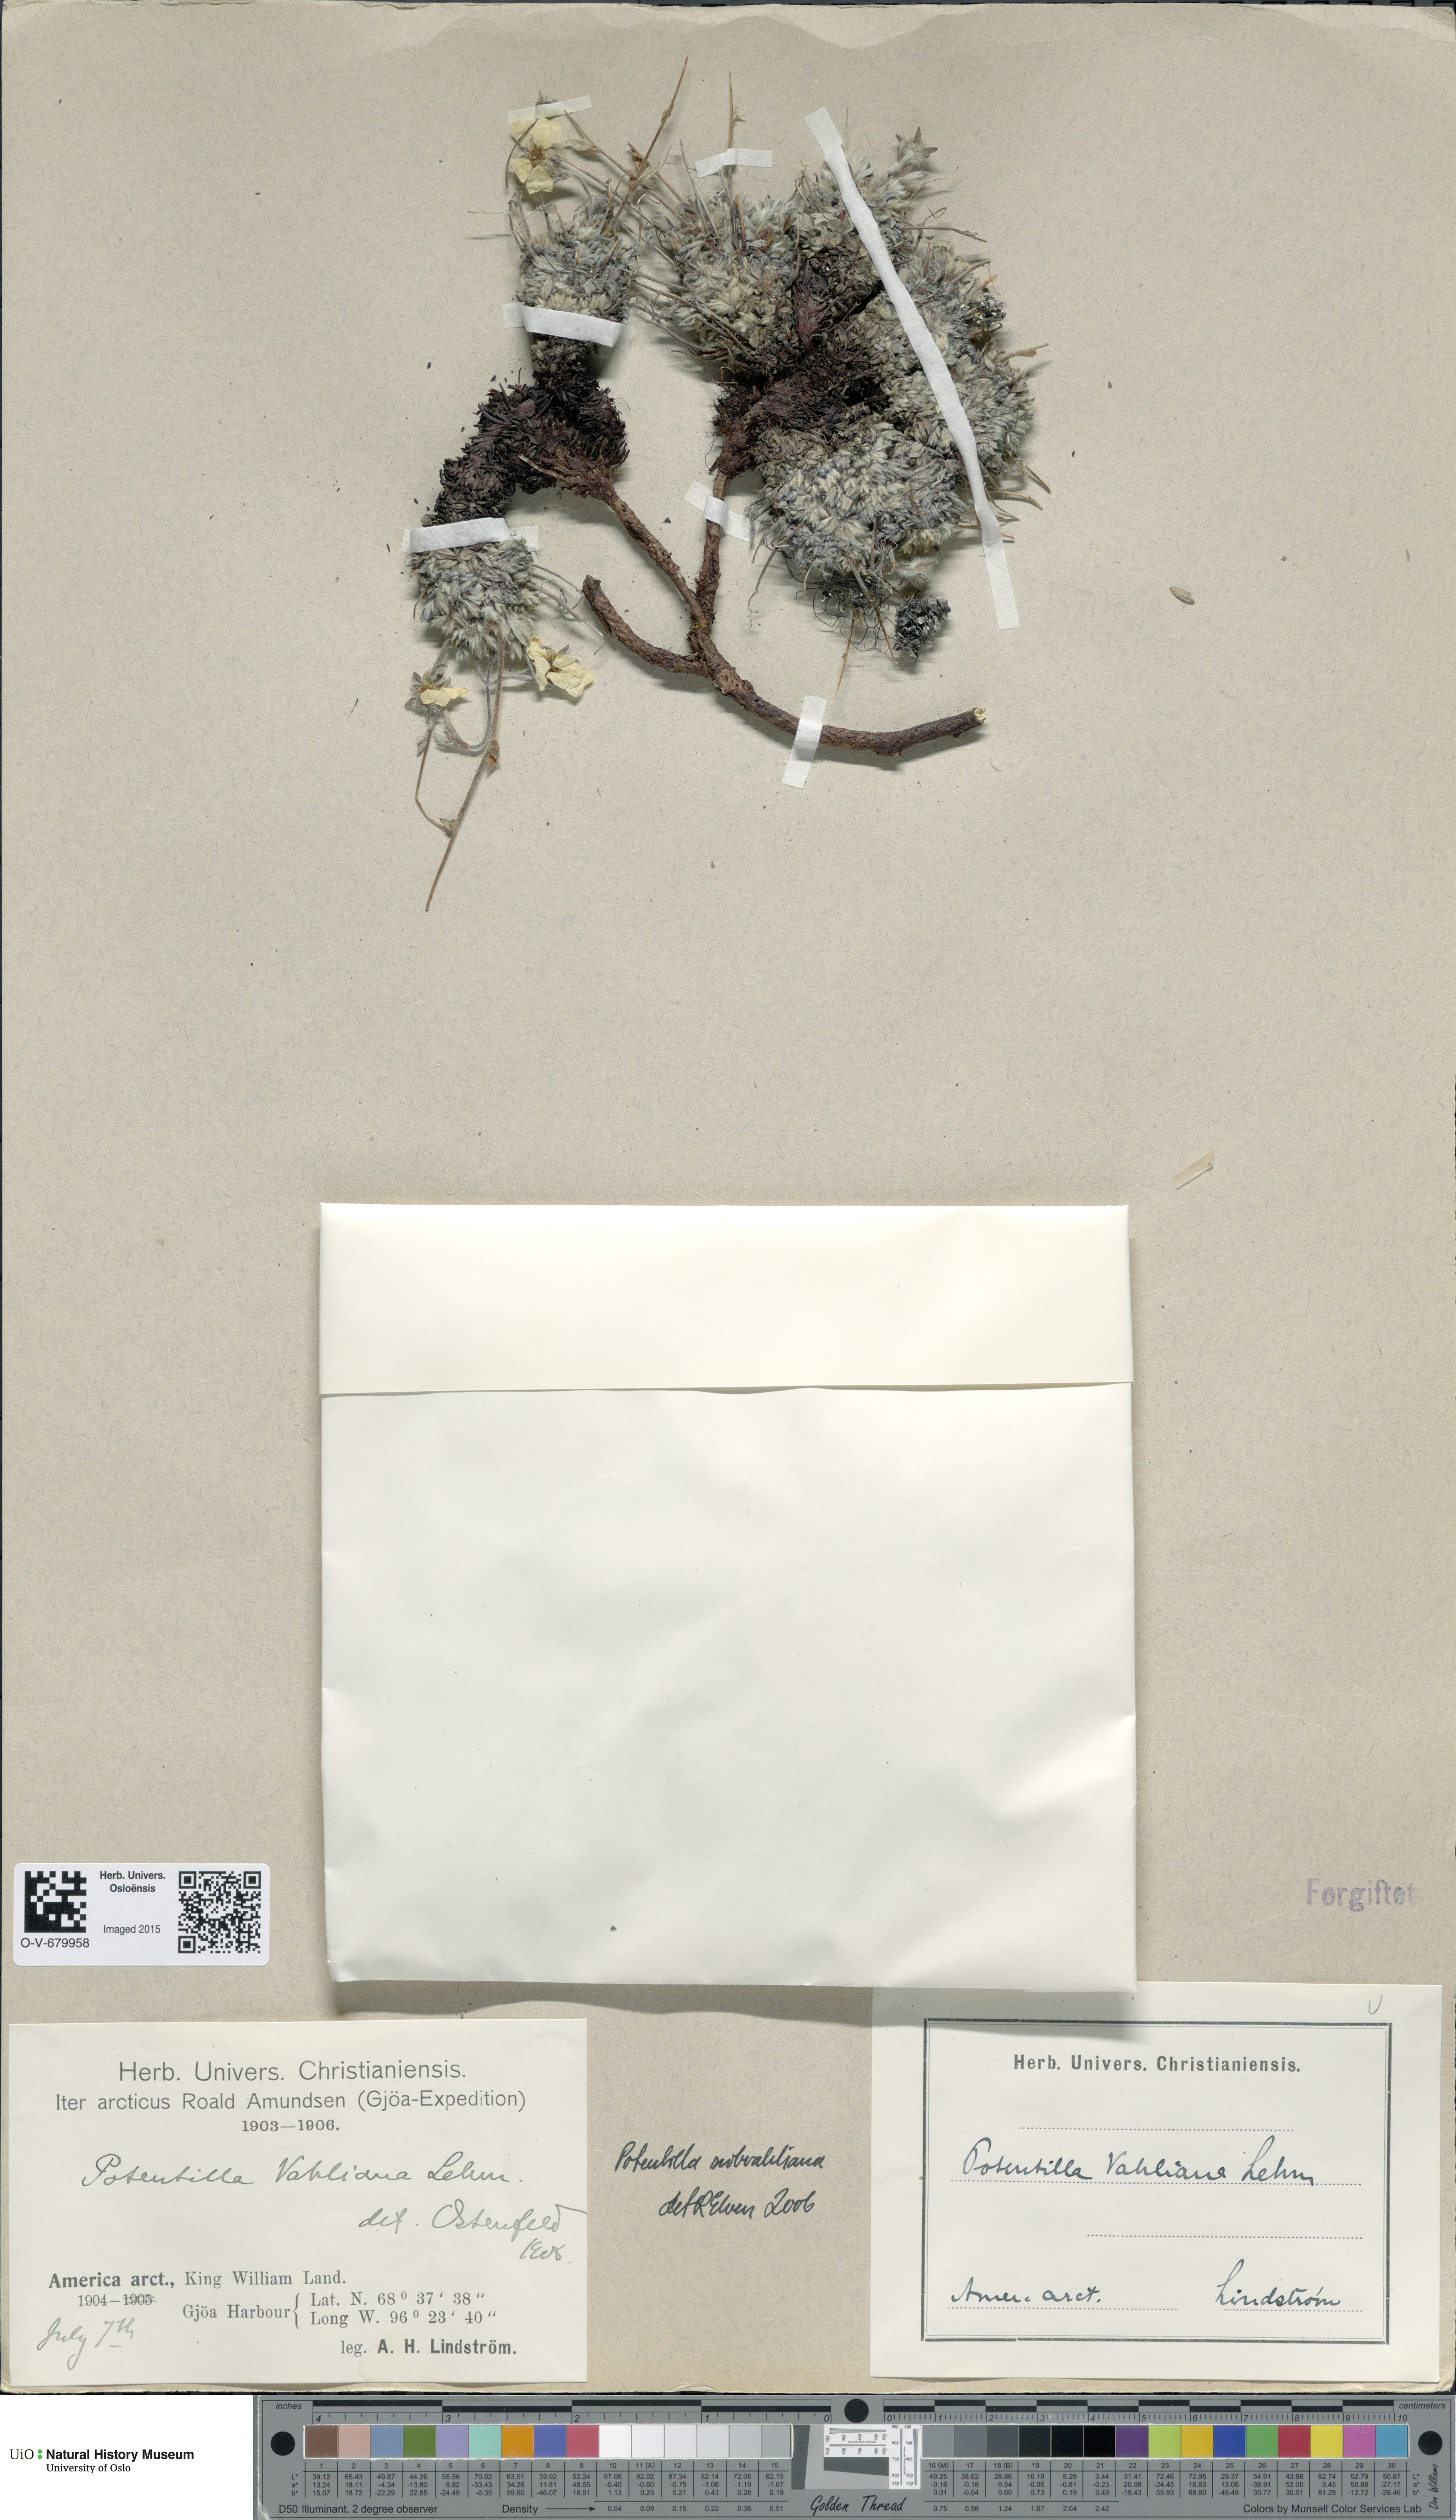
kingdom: Plantae
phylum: Tracheophyta
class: Magnoliopsida
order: Rosales
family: Rosaceae
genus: Potentilla
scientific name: Potentilla subvahliana
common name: Far northern cinquefoil
